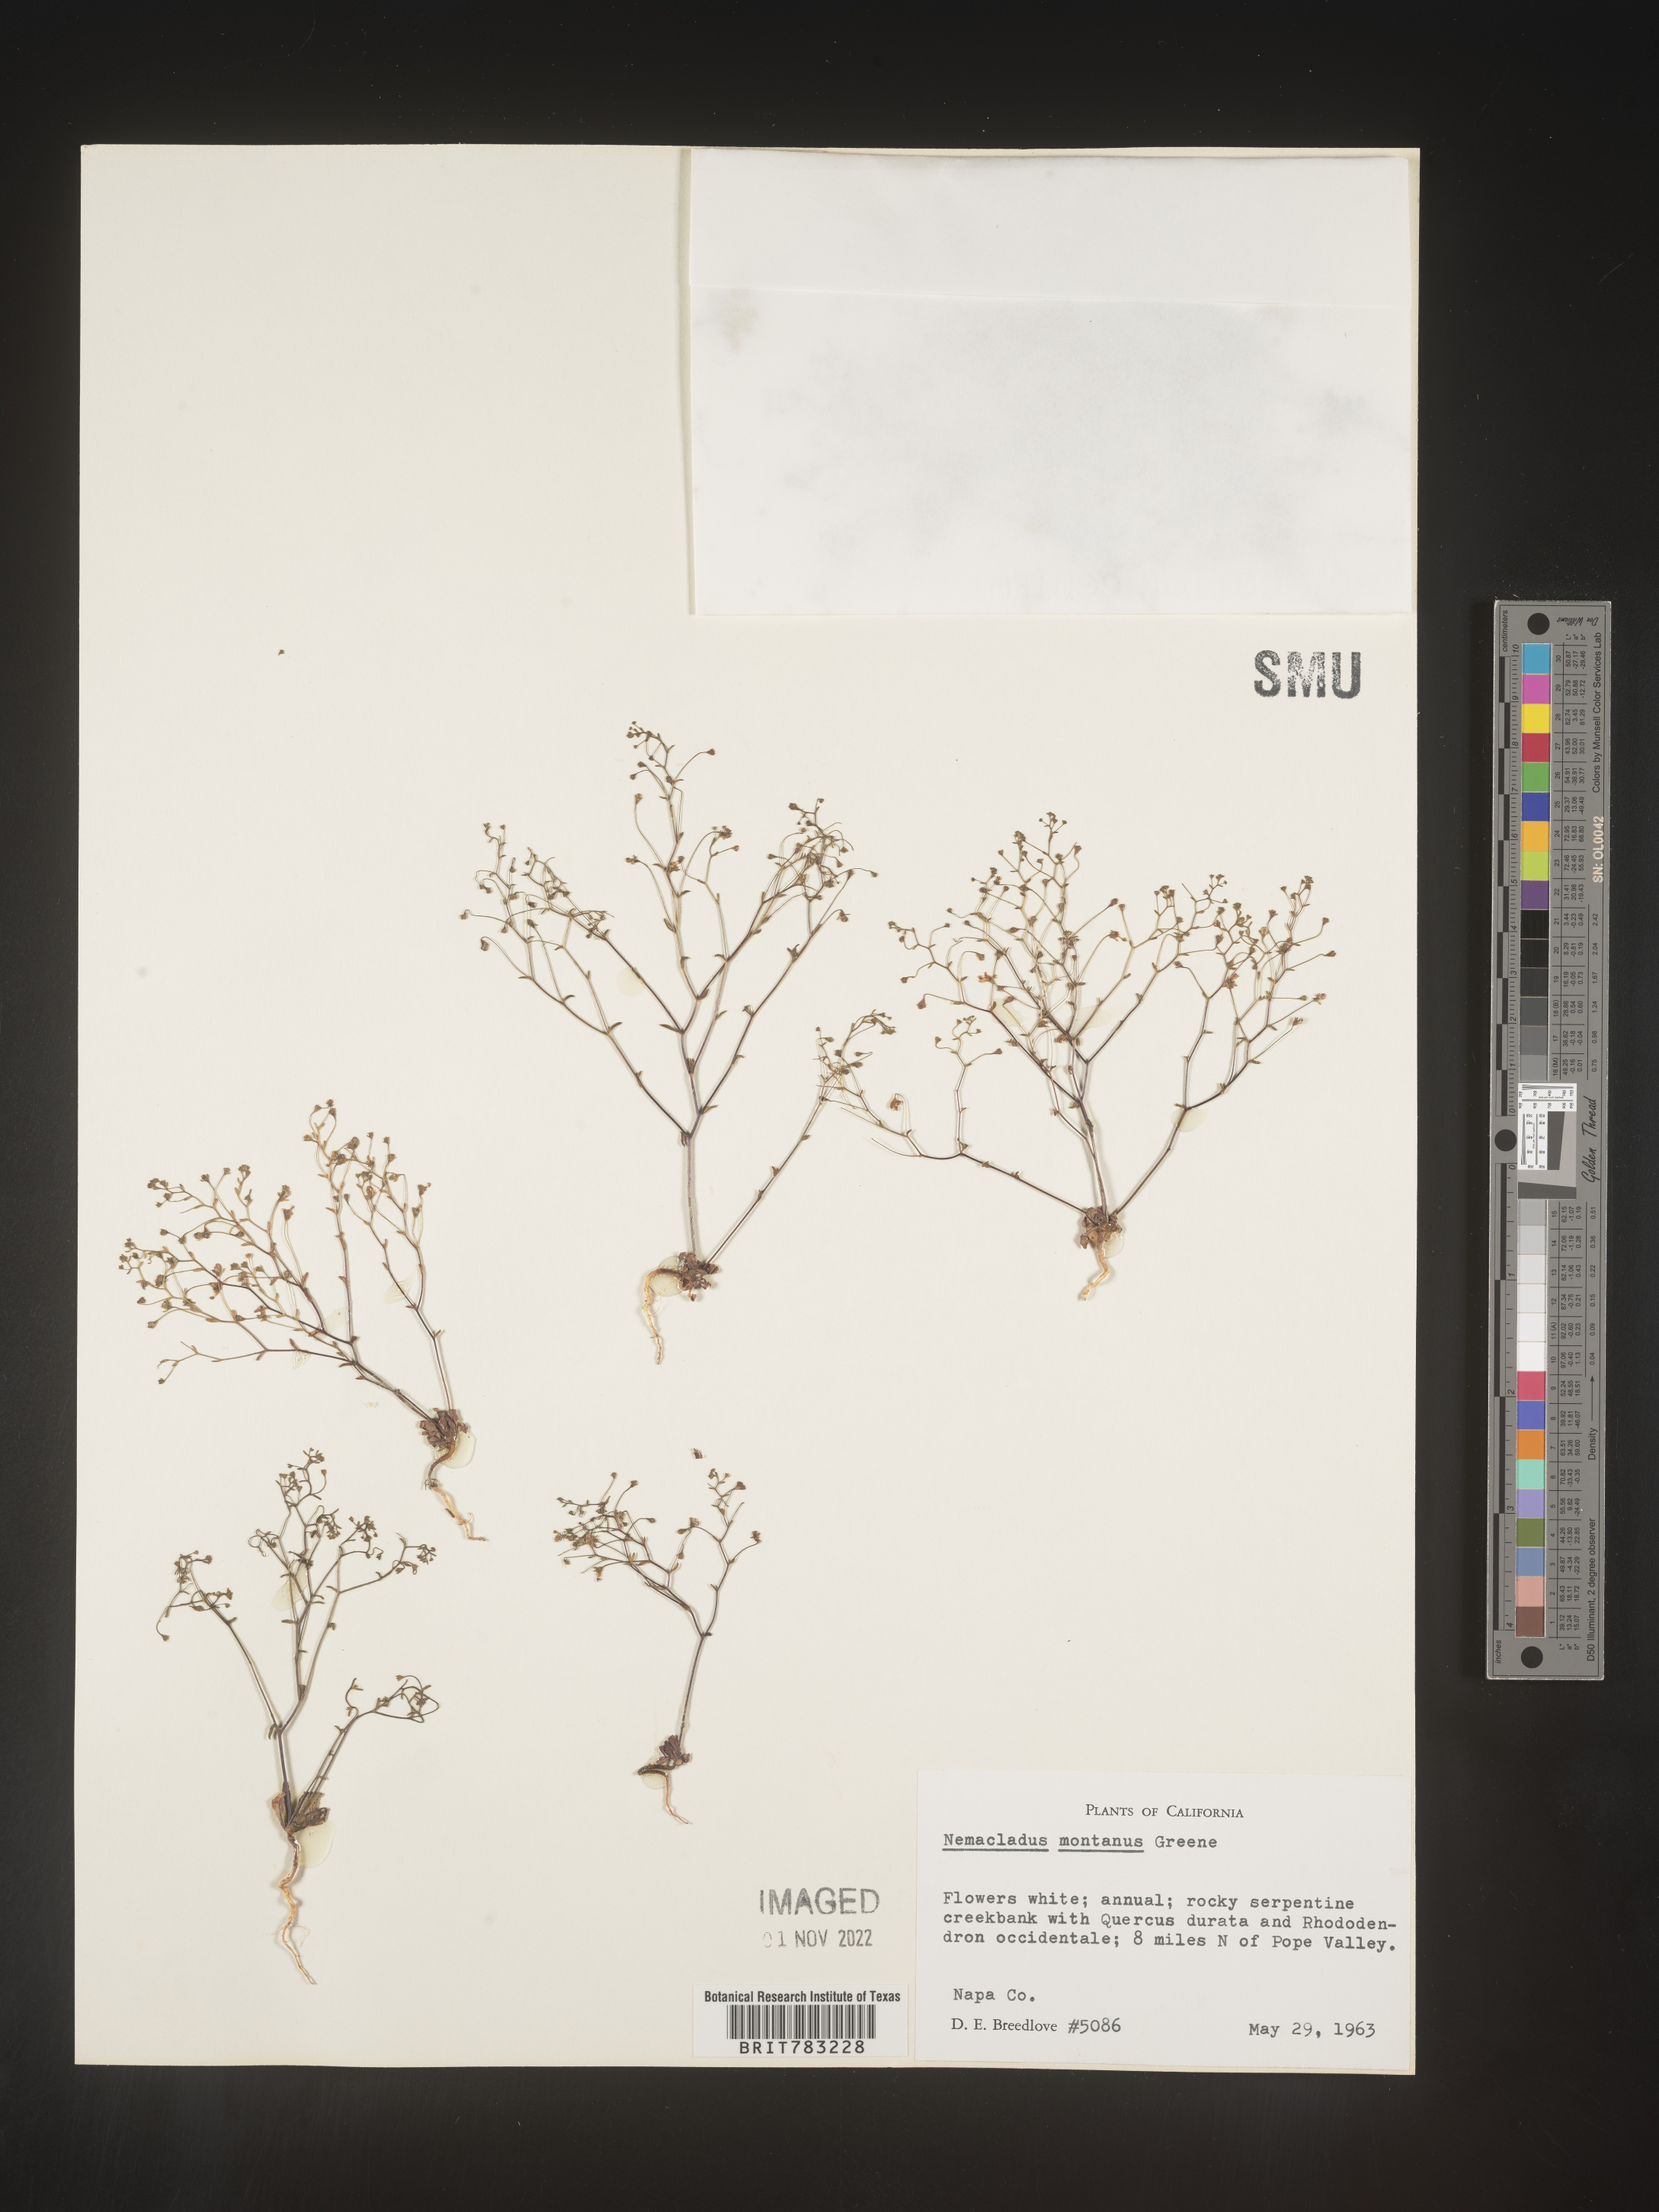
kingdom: Plantae
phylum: Tracheophyta
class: Magnoliopsida
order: Asterales
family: Campanulaceae
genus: Nemacladus
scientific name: Nemacladus
